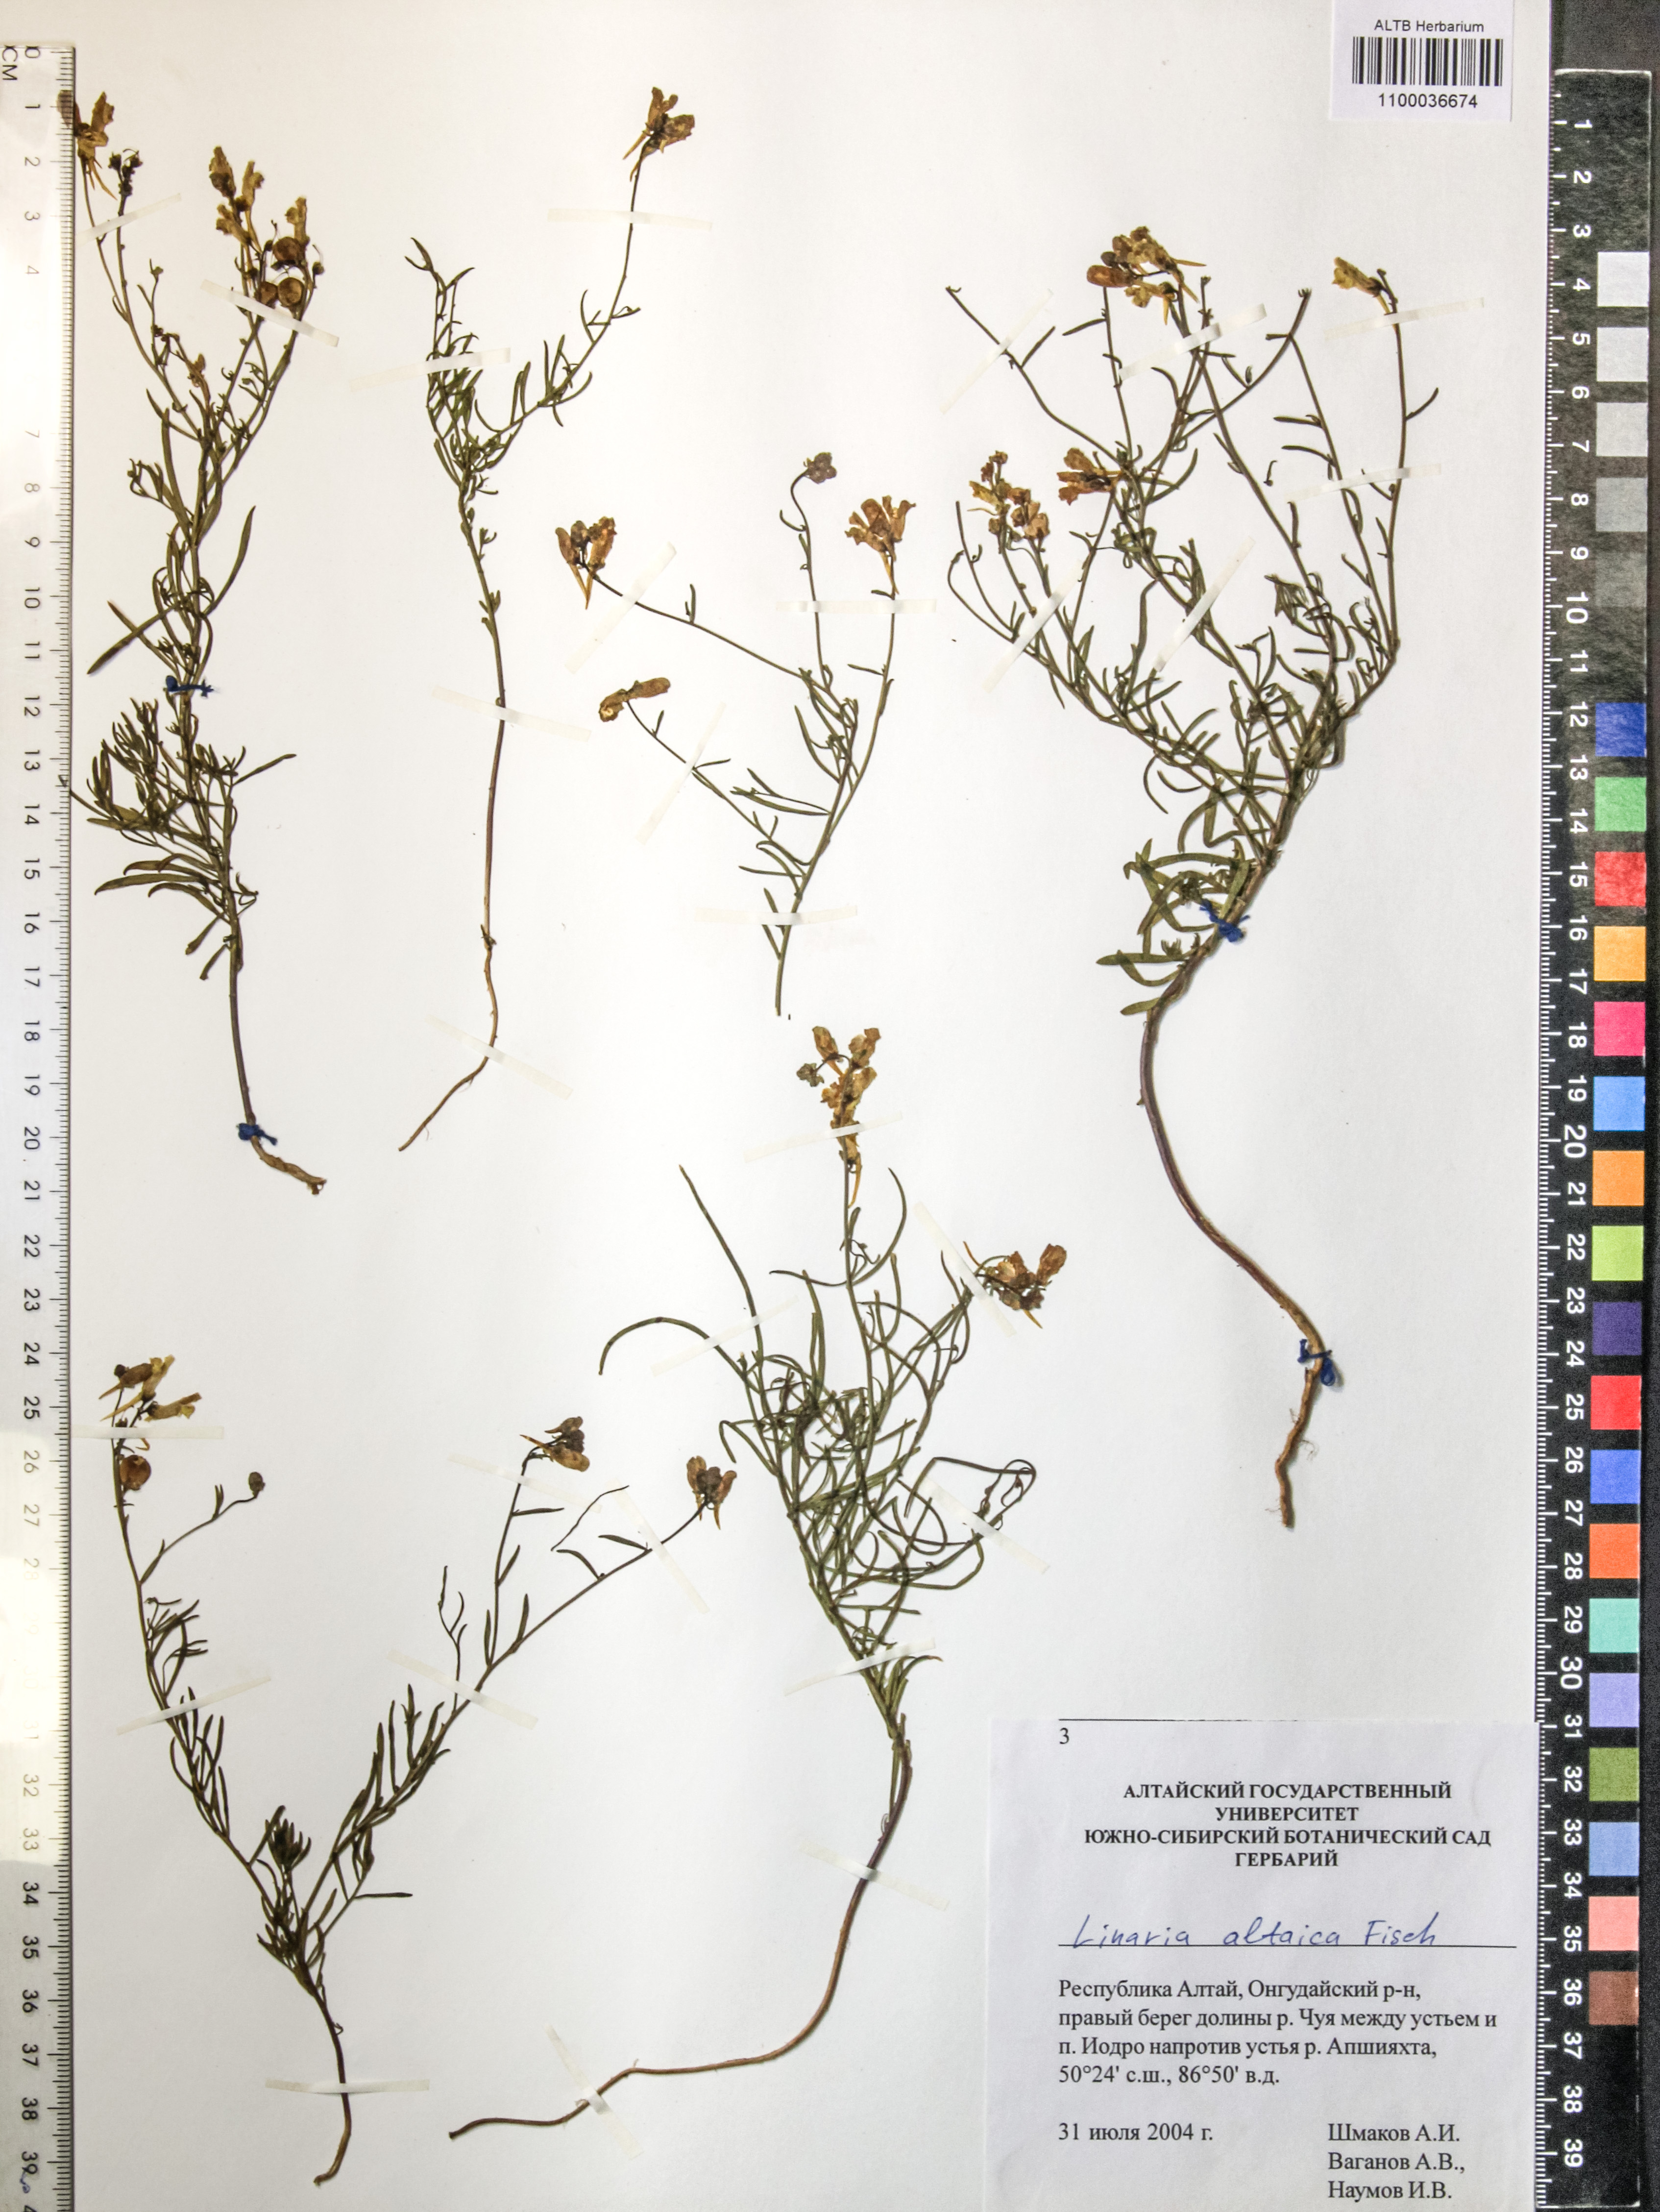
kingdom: Plantae
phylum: Tracheophyta
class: Magnoliopsida
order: Lamiales
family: Plantaginaceae
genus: Linaria
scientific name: Linaria altaica
